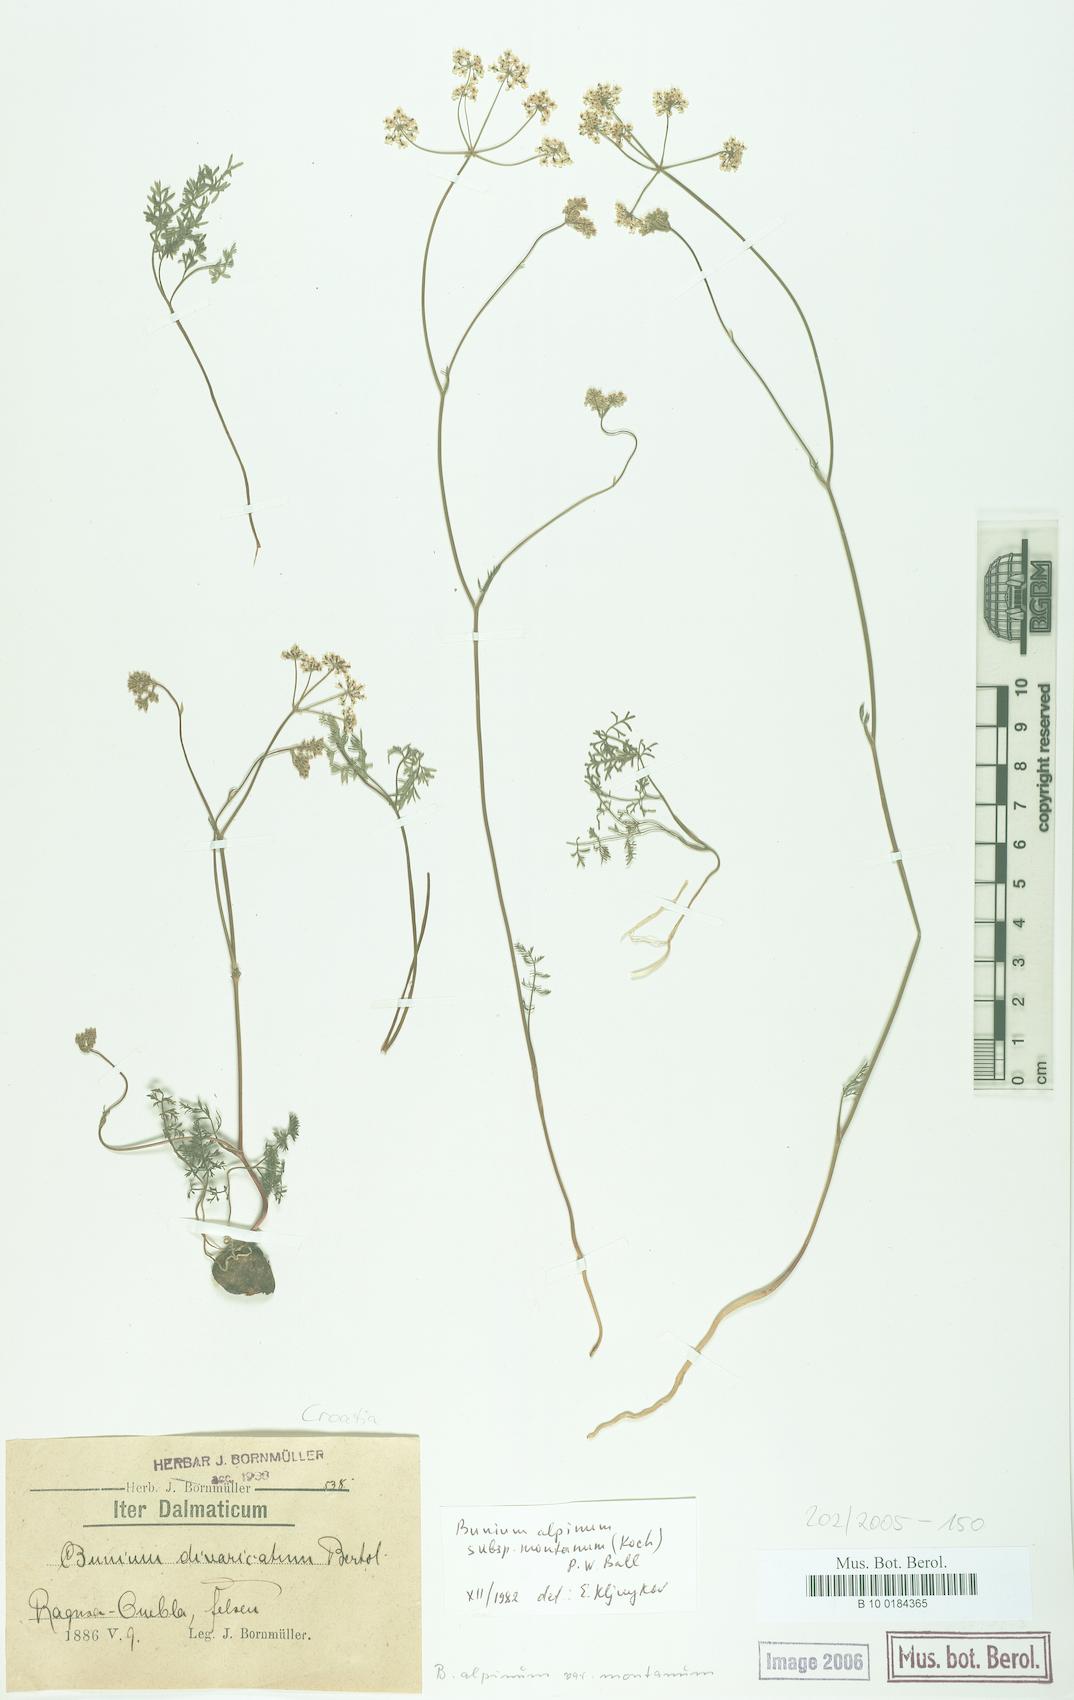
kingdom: Plantae
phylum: Tracheophyta
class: Magnoliopsida
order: Apiales
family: Apiaceae
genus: Bunium
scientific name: Bunium alpinum
